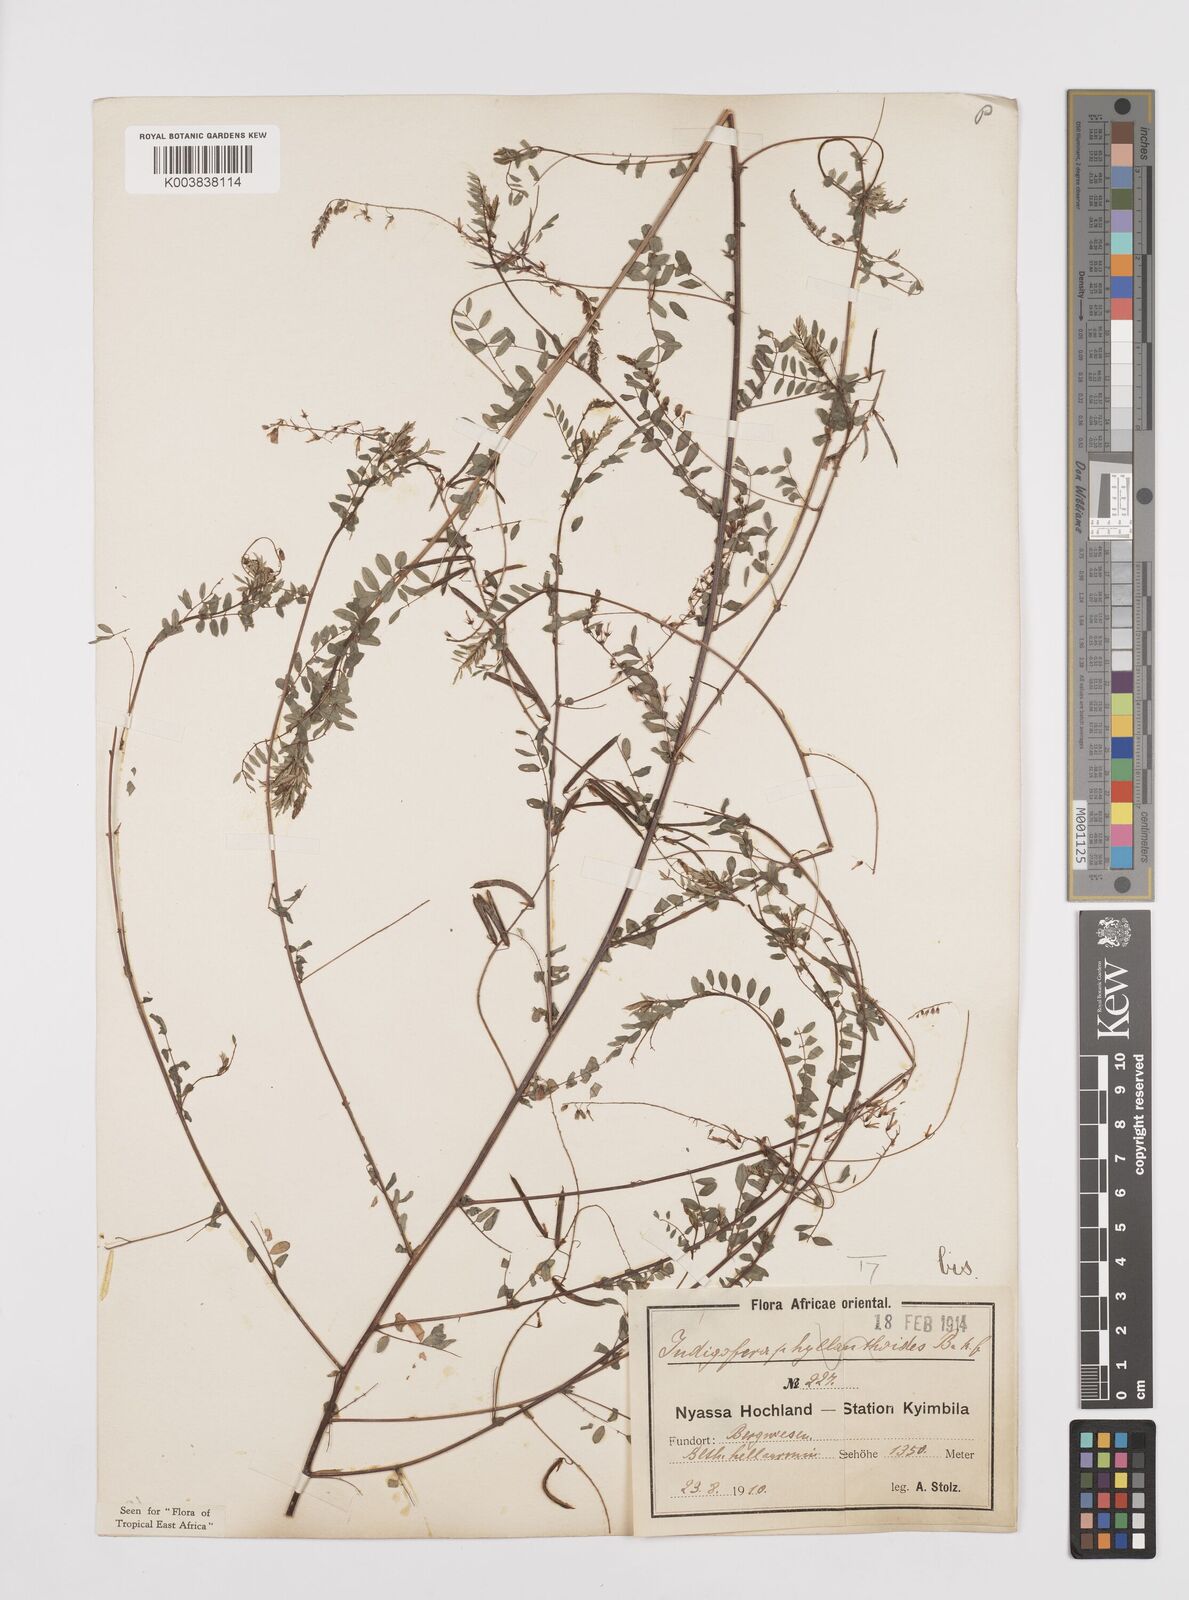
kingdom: Plantae
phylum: Tracheophyta
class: Magnoliopsida
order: Fabales
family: Fabaceae
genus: Indigofera
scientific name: Indigofera dendroides
